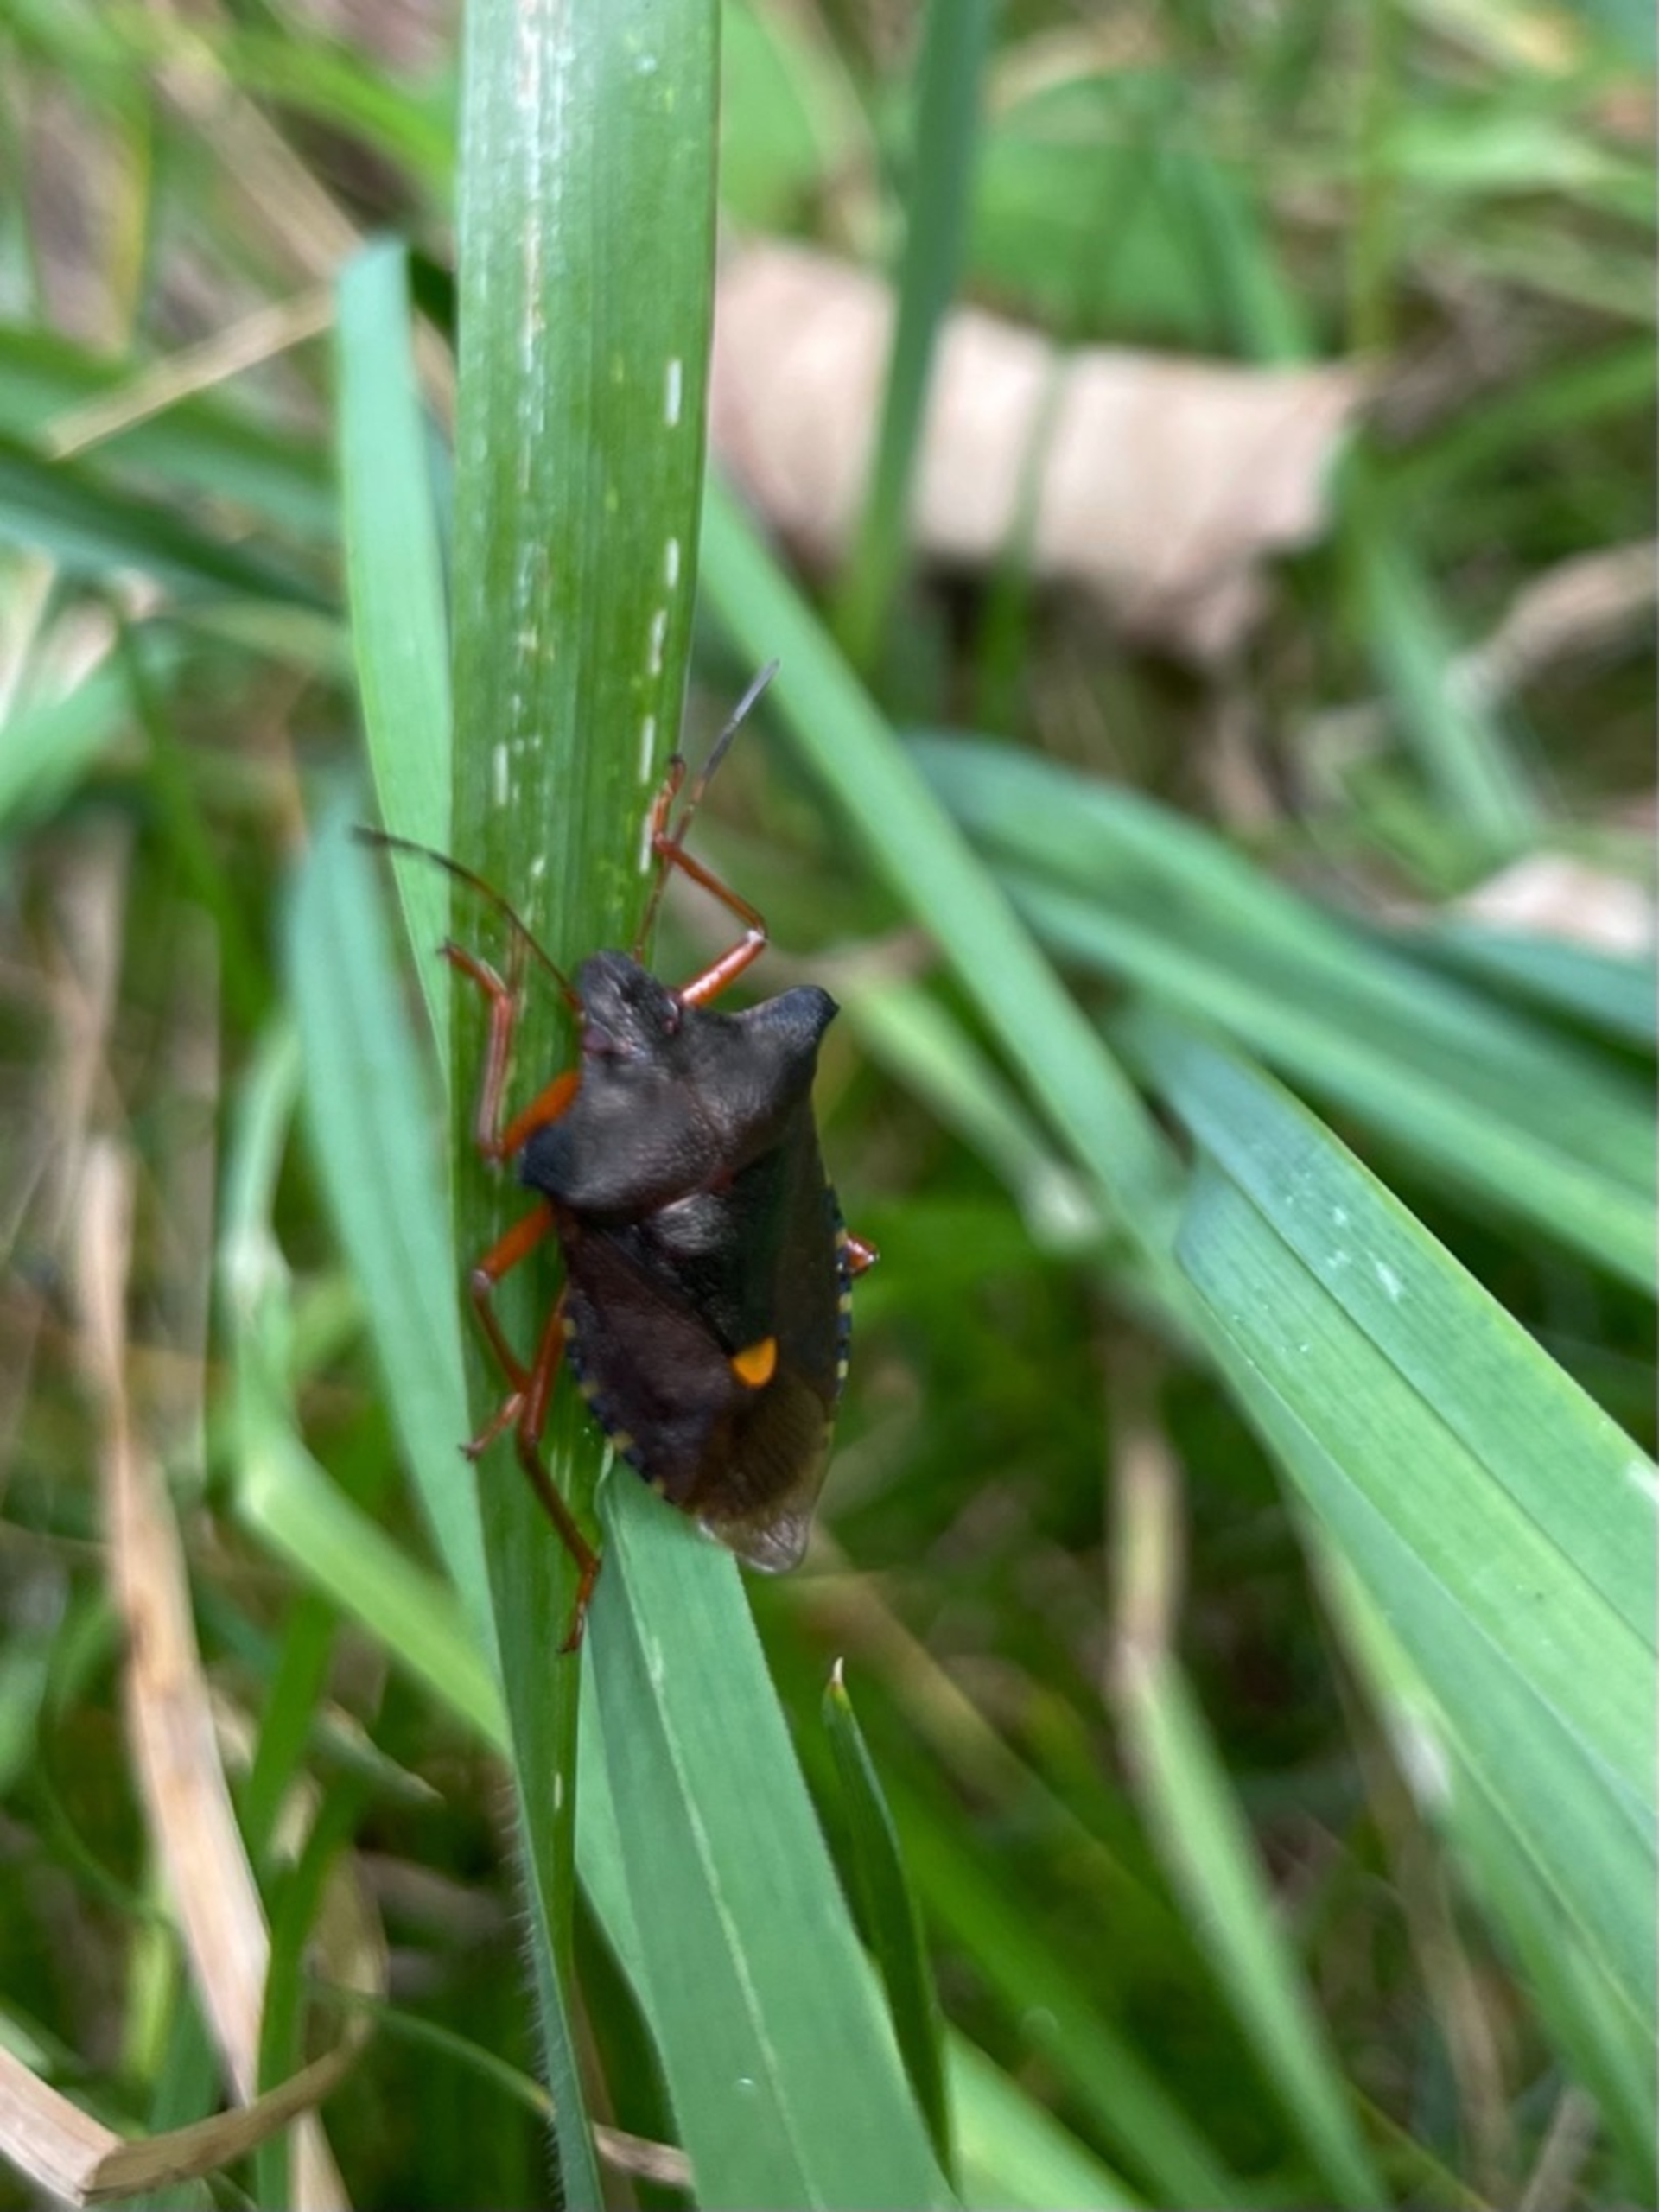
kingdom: Animalia
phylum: Arthropoda
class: Insecta
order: Hemiptera
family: Pentatomidae
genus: Pentatoma
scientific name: Pentatoma rufipes
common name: Rødbenet bredtæge
